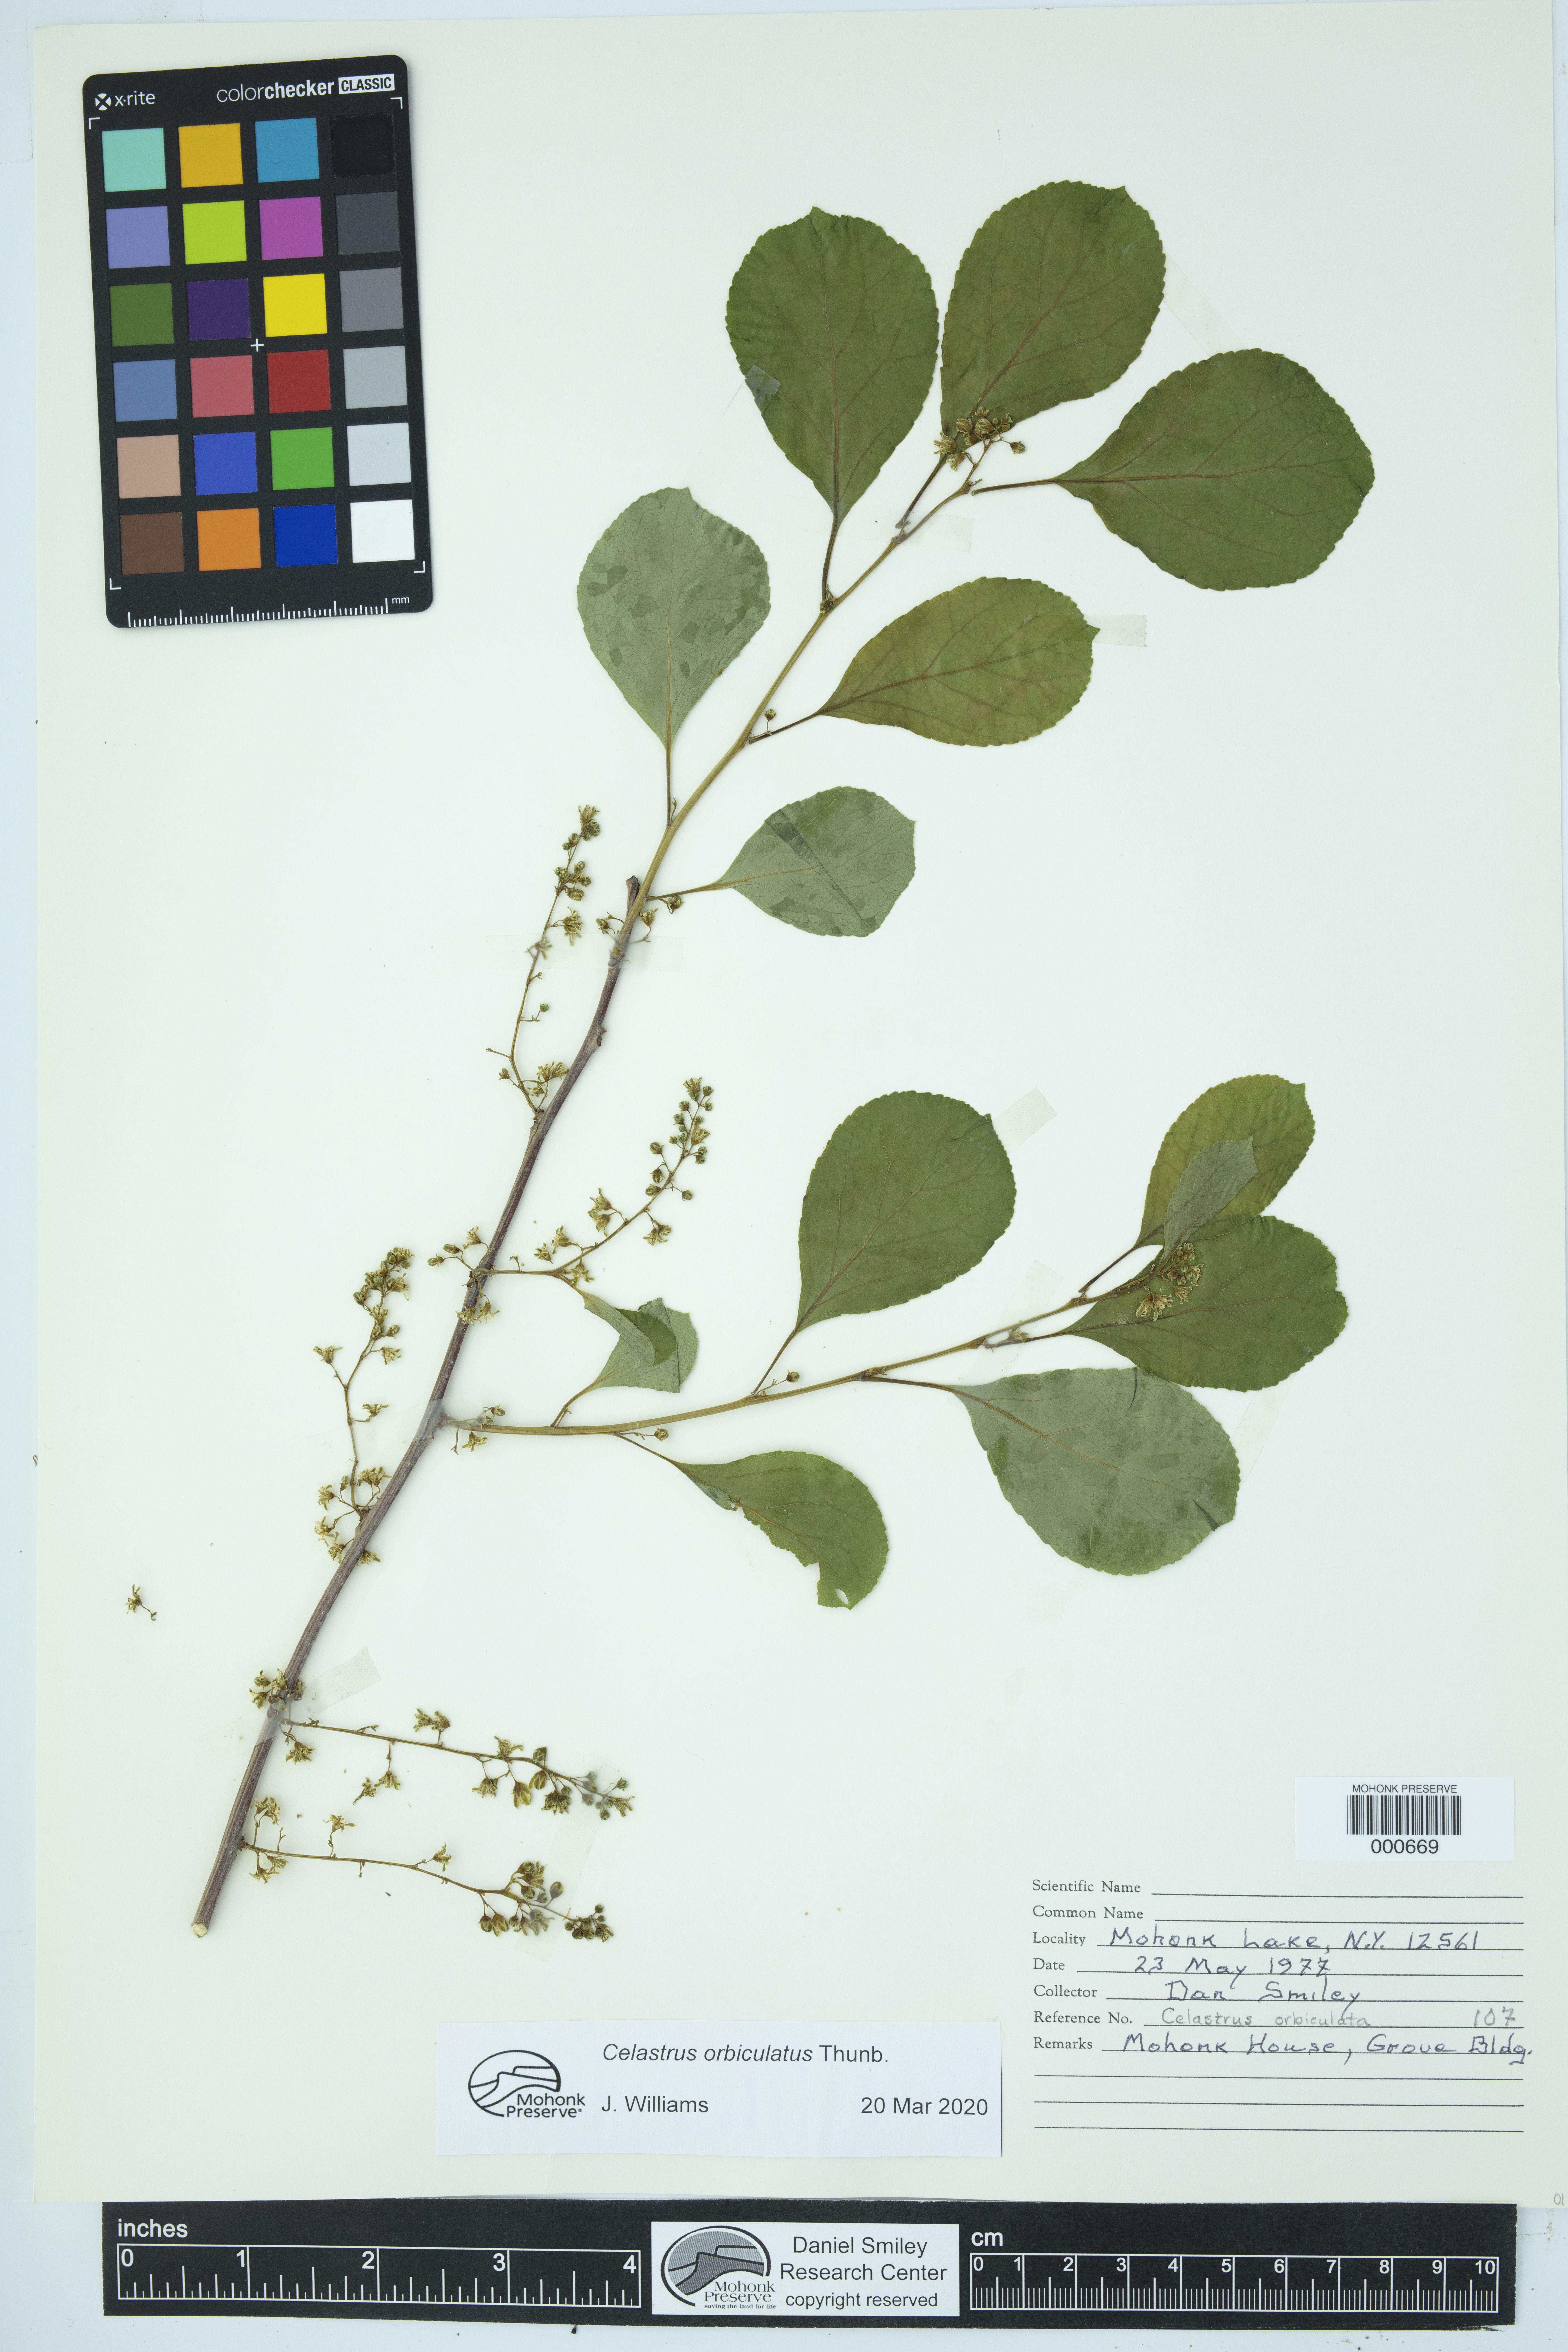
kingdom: Plantae
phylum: Tracheophyta
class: Magnoliopsida
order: Celastrales
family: Celastraceae
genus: Celastrus
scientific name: Celastrus orbiculatus
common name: Oriental bittersweet
